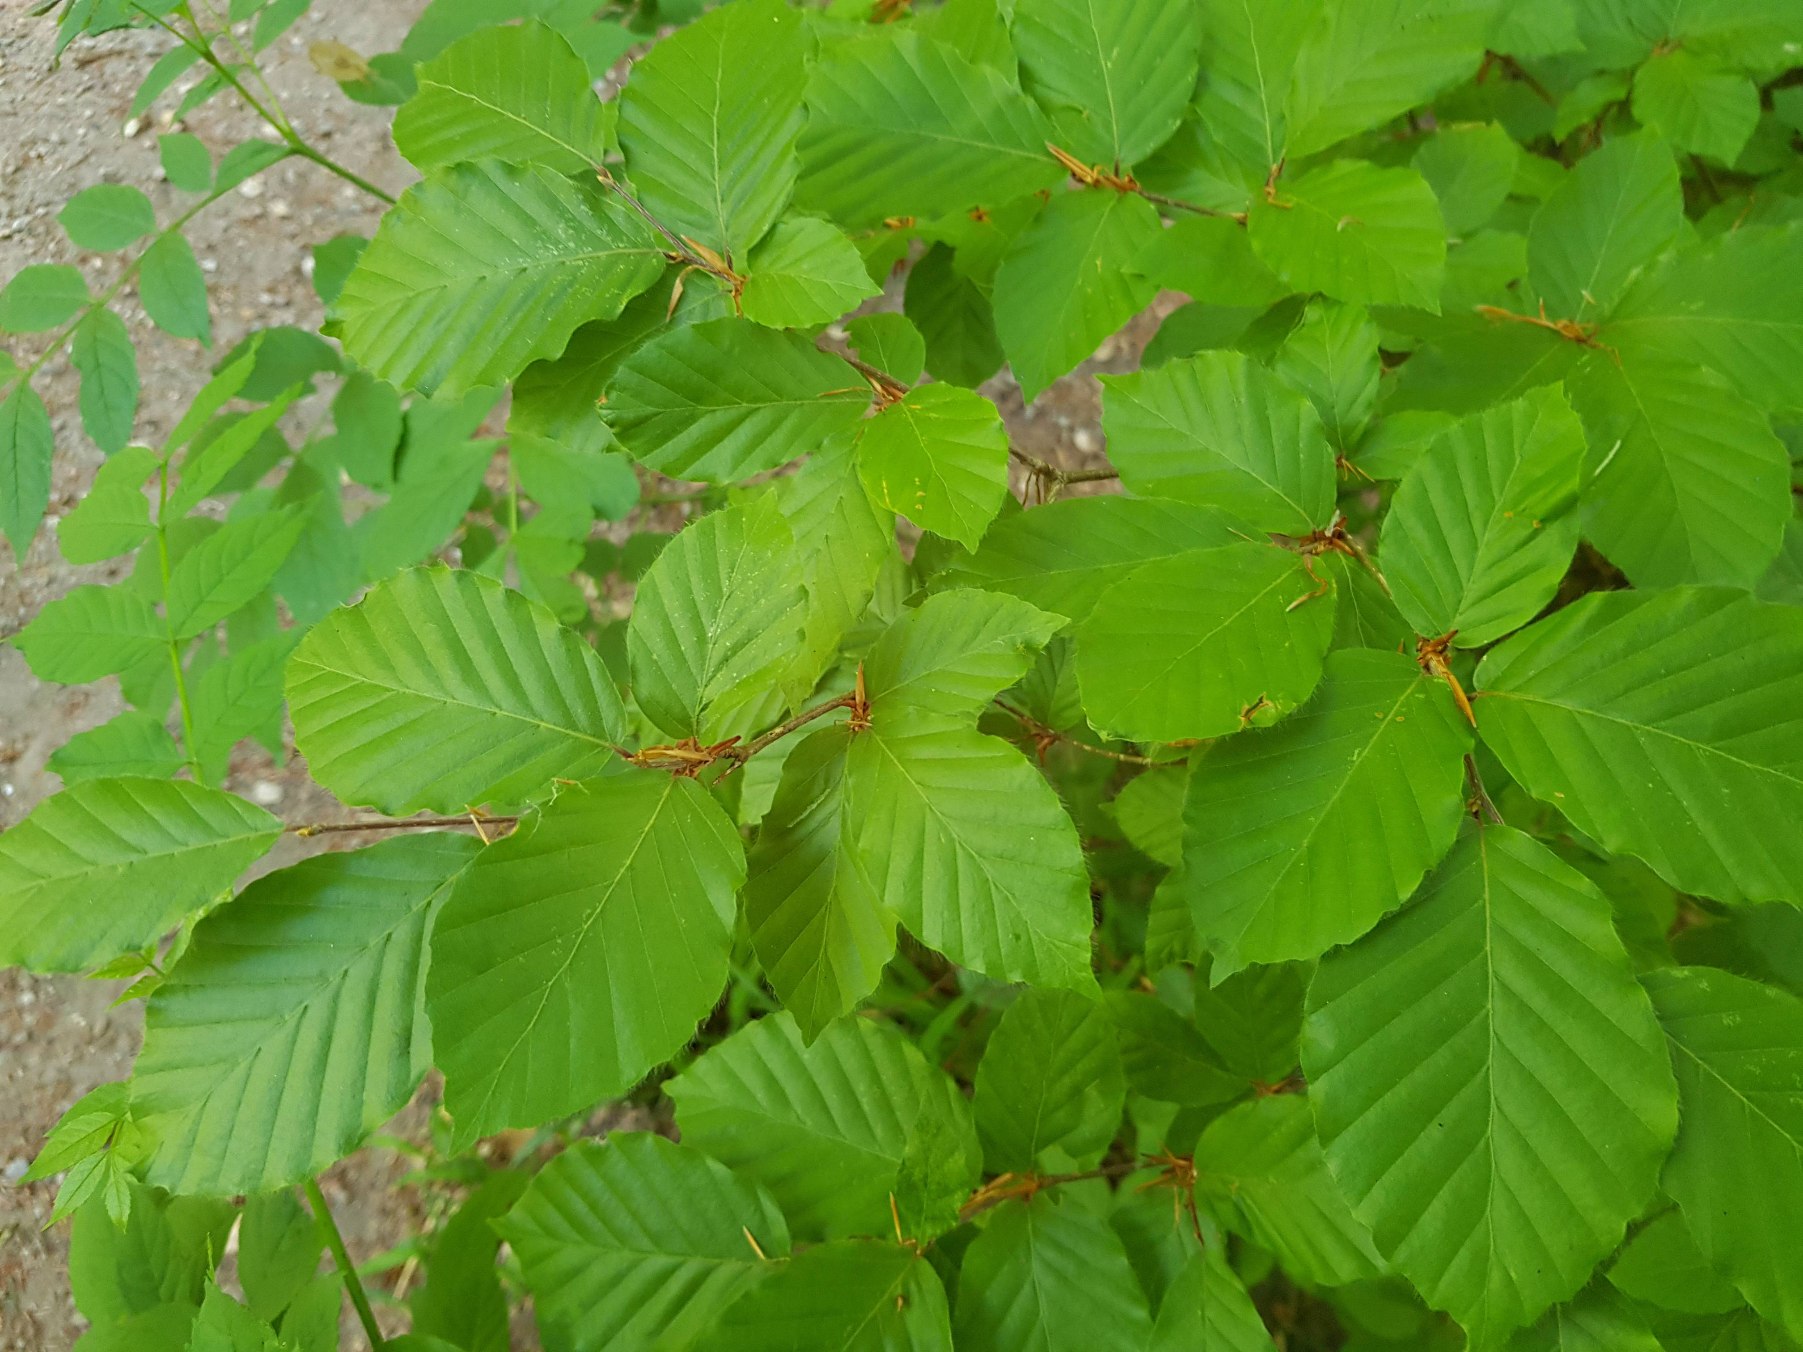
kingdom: Plantae
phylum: Tracheophyta
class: Magnoliopsida
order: Fagales
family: Fagaceae
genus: Fagus
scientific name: Fagus sylvatica
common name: Bøg
